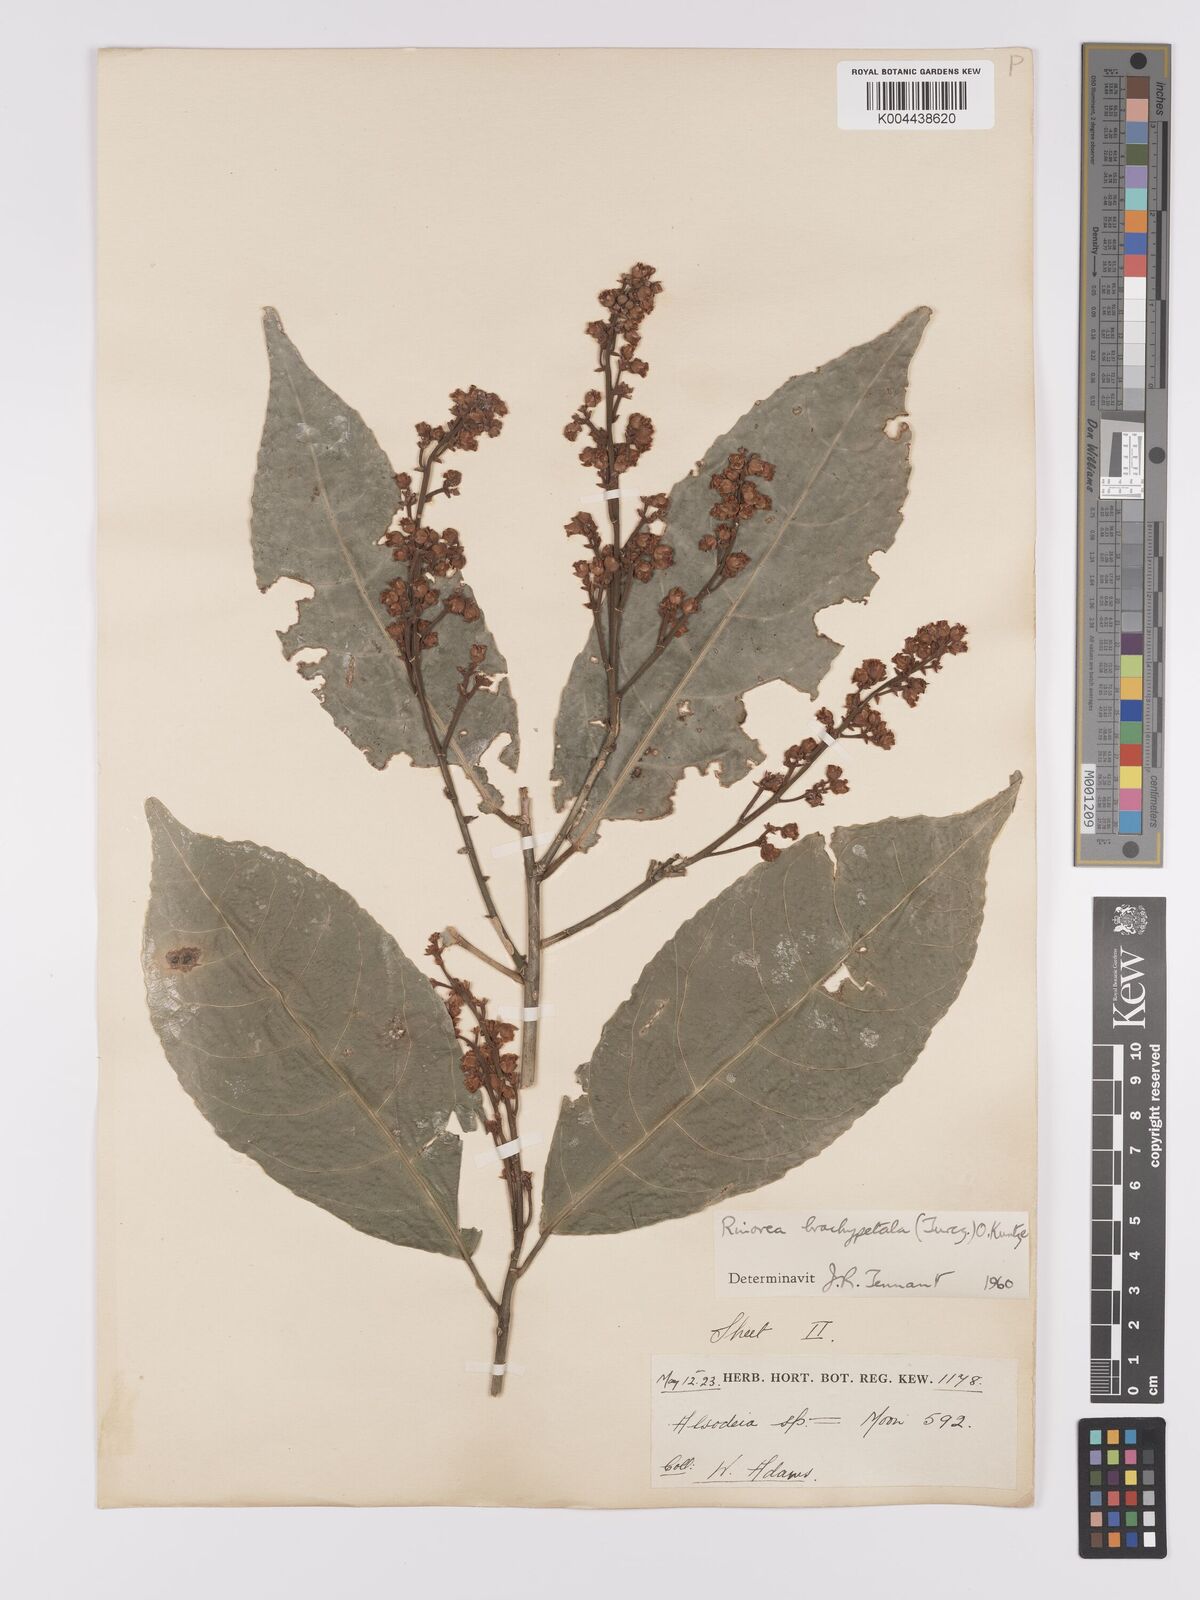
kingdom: Plantae
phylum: Tracheophyta
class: Magnoliopsida
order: Malpighiales
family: Violaceae
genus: Rinorea
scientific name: Rinorea brachypetala
